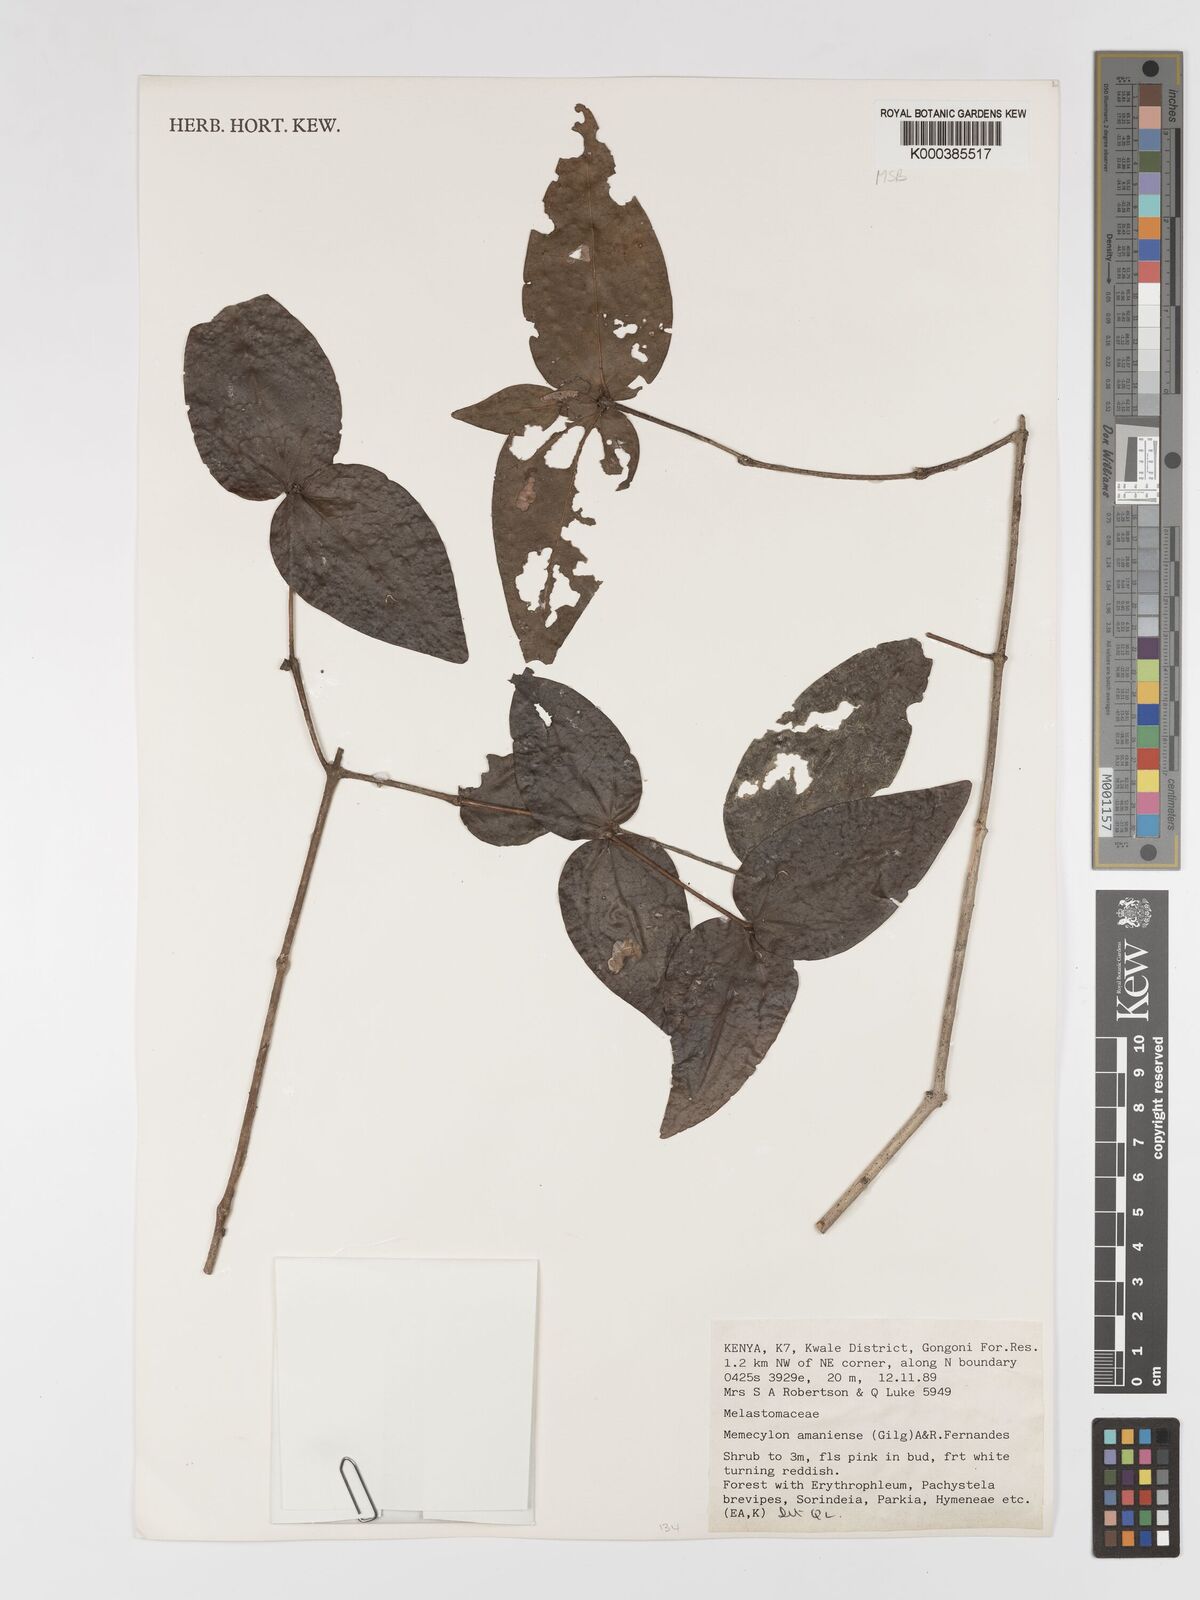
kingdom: Plantae
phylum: Tracheophyta
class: Magnoliopsida
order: Myrtales
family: Melastomataceae
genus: Warneckea
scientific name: Warneckea amaniensis
